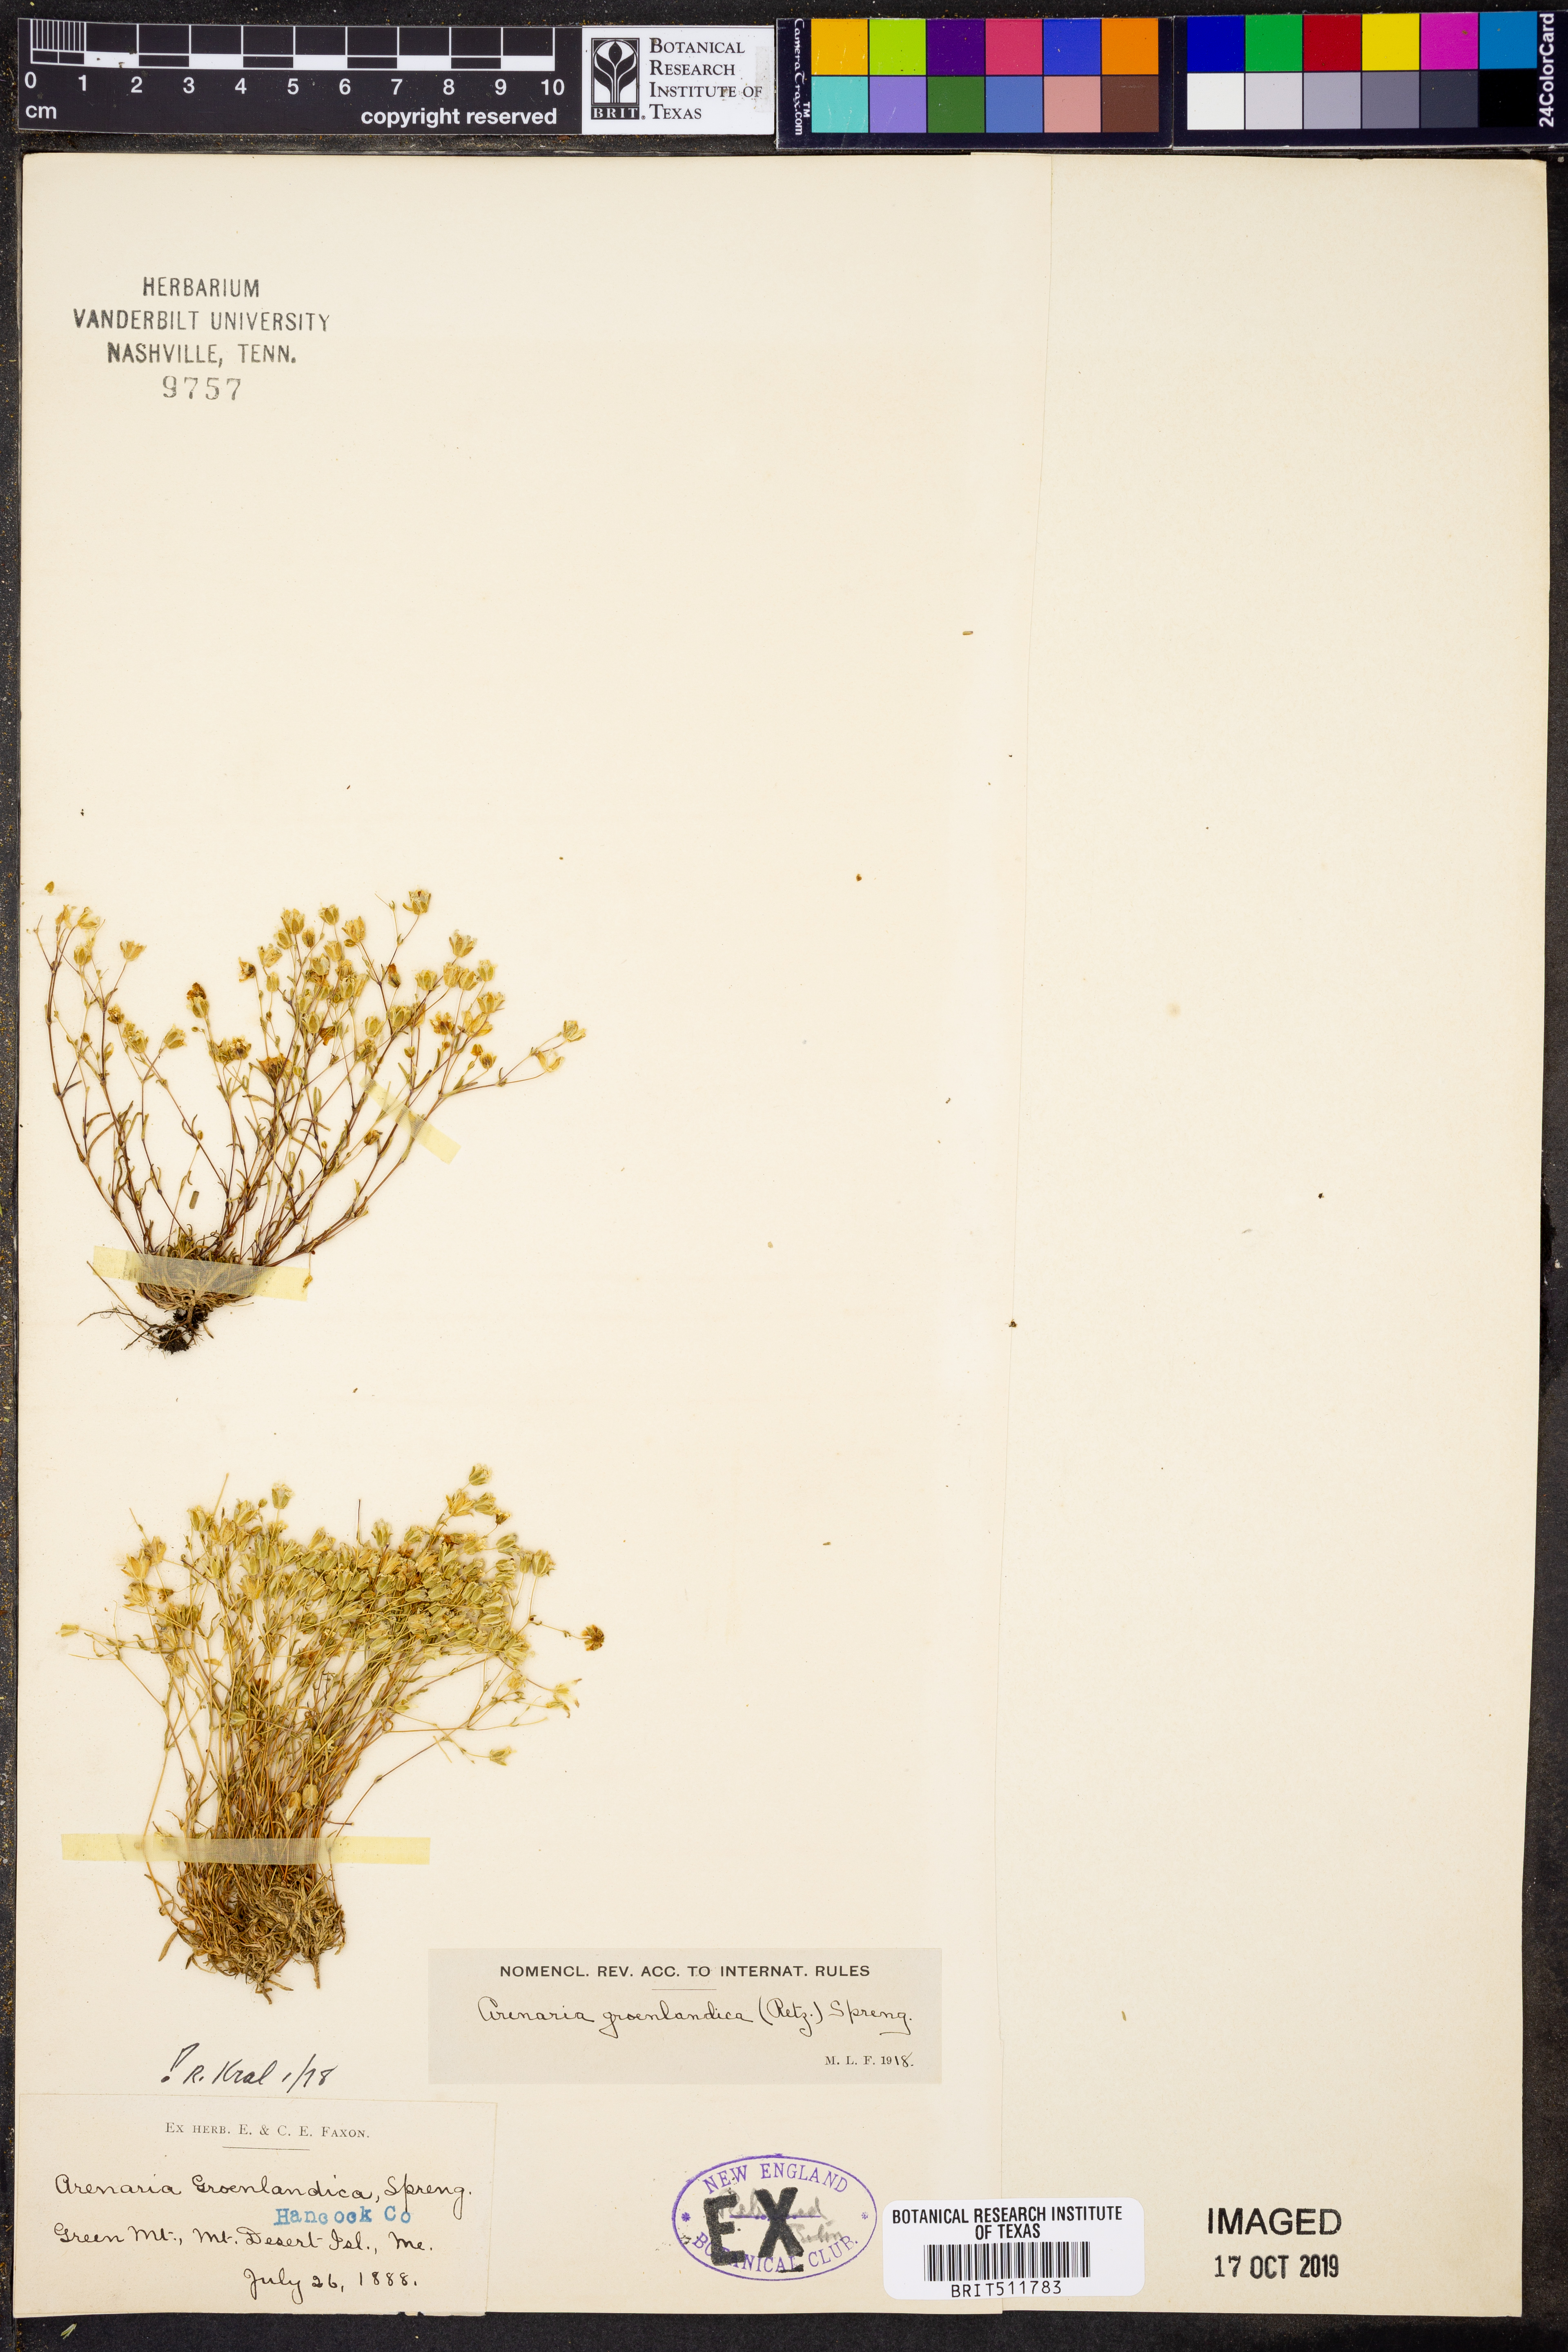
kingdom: Plantae
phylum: Tracheophyta
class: Magnoliopsida
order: Caryophyllales
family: Caryophyllaceae
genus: Geocarpon
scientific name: Geocarpon groenlandicum
